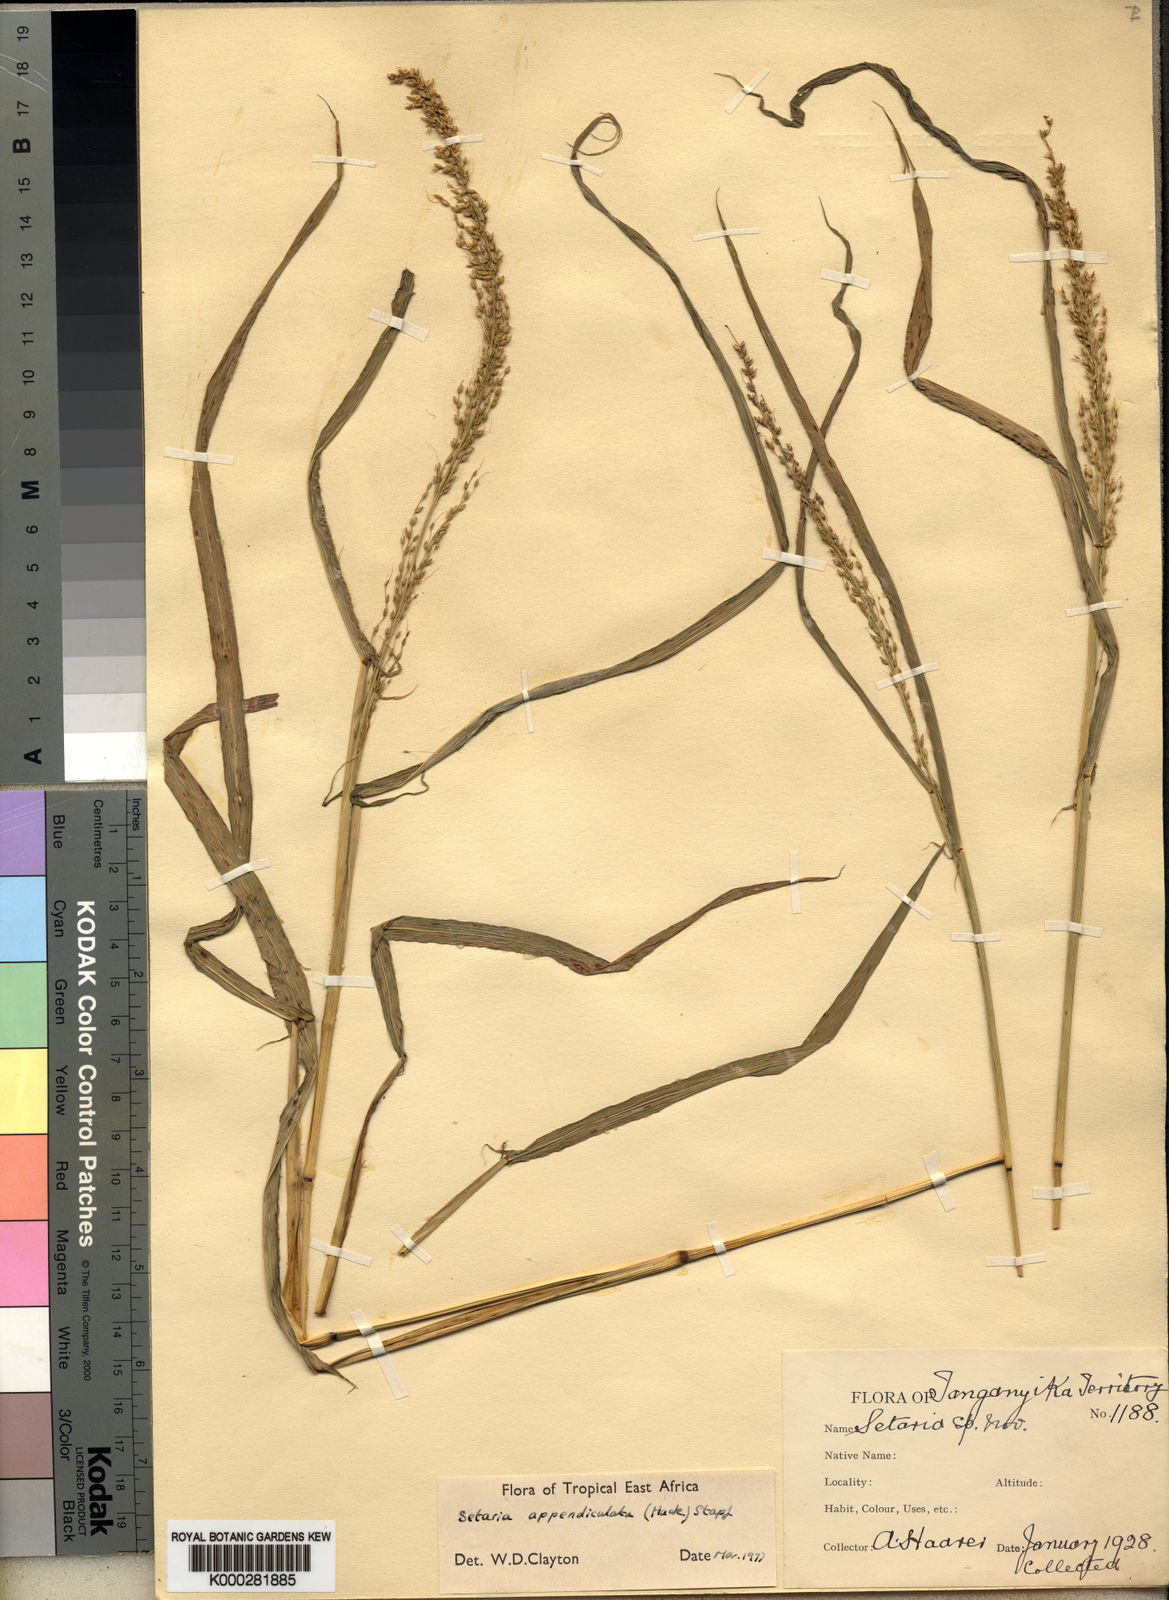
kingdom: Plantae
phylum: Tracheophyta
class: Liliopsida
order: Poales
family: Poaceae
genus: Setaria
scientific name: Setaria appendiculata
